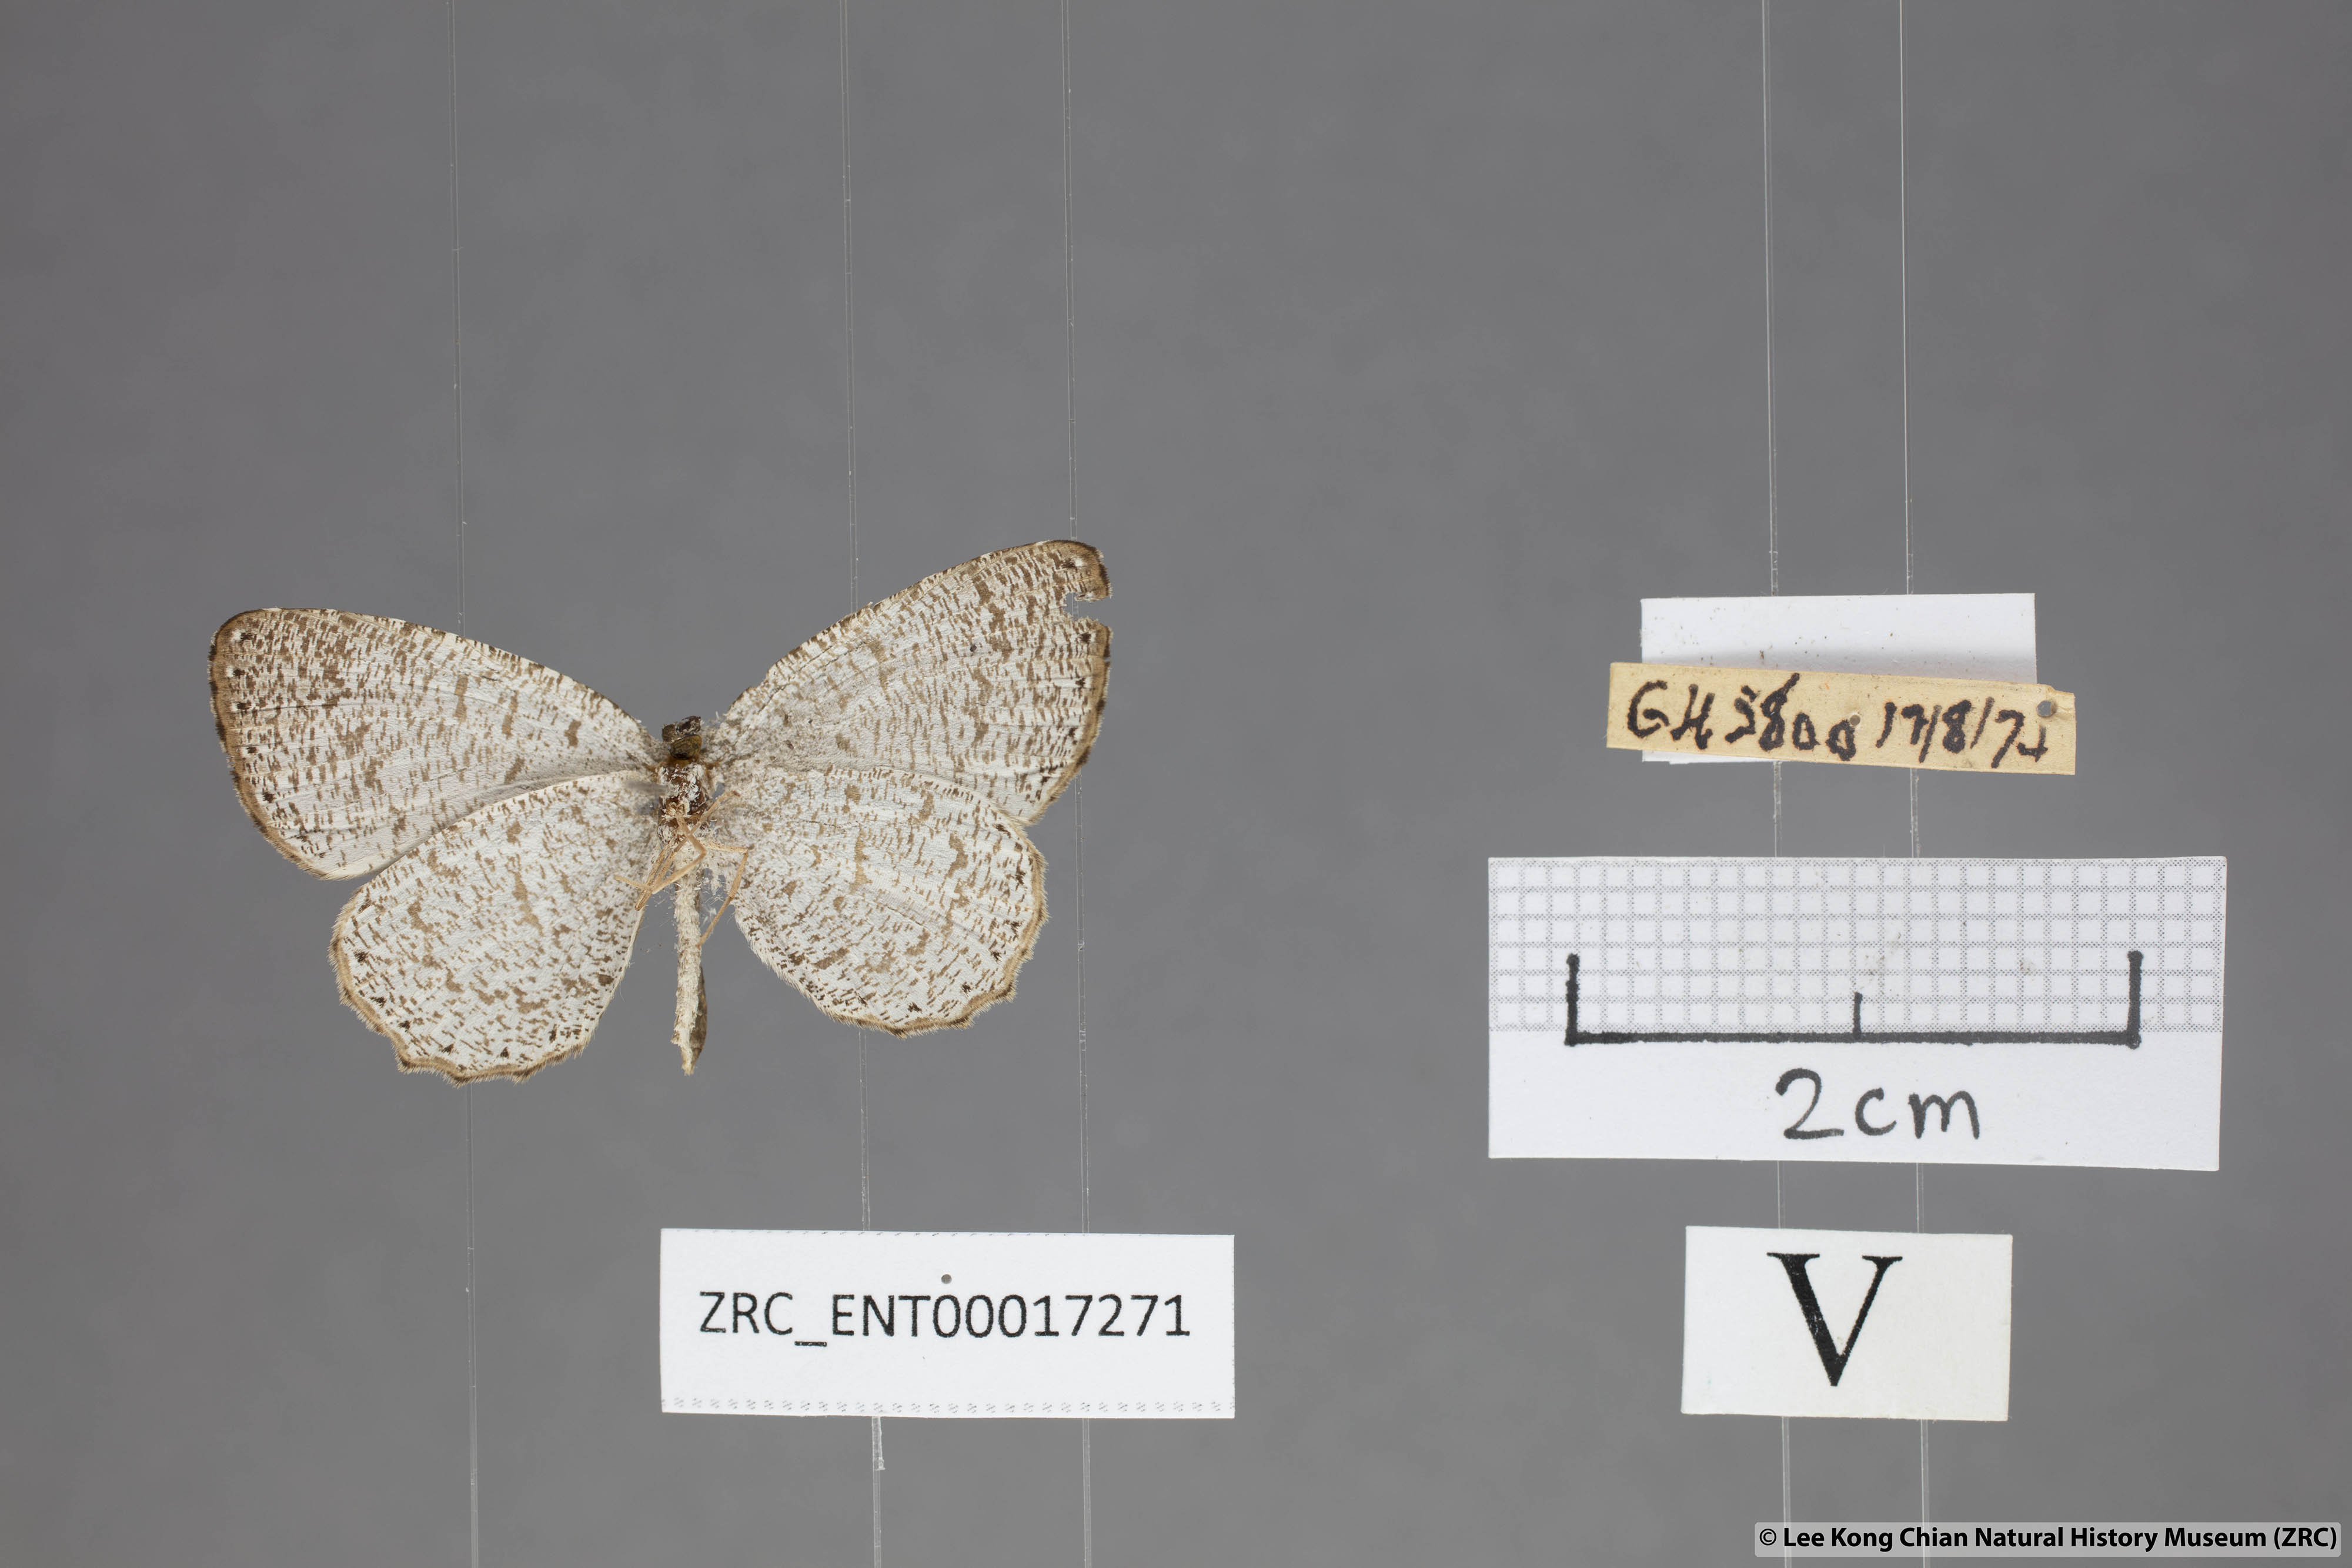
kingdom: Animalia
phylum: Arthropoda
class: Insecta
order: Lepidoptera
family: Lycaenidae
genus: Allotinus
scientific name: Allotinus portunus
